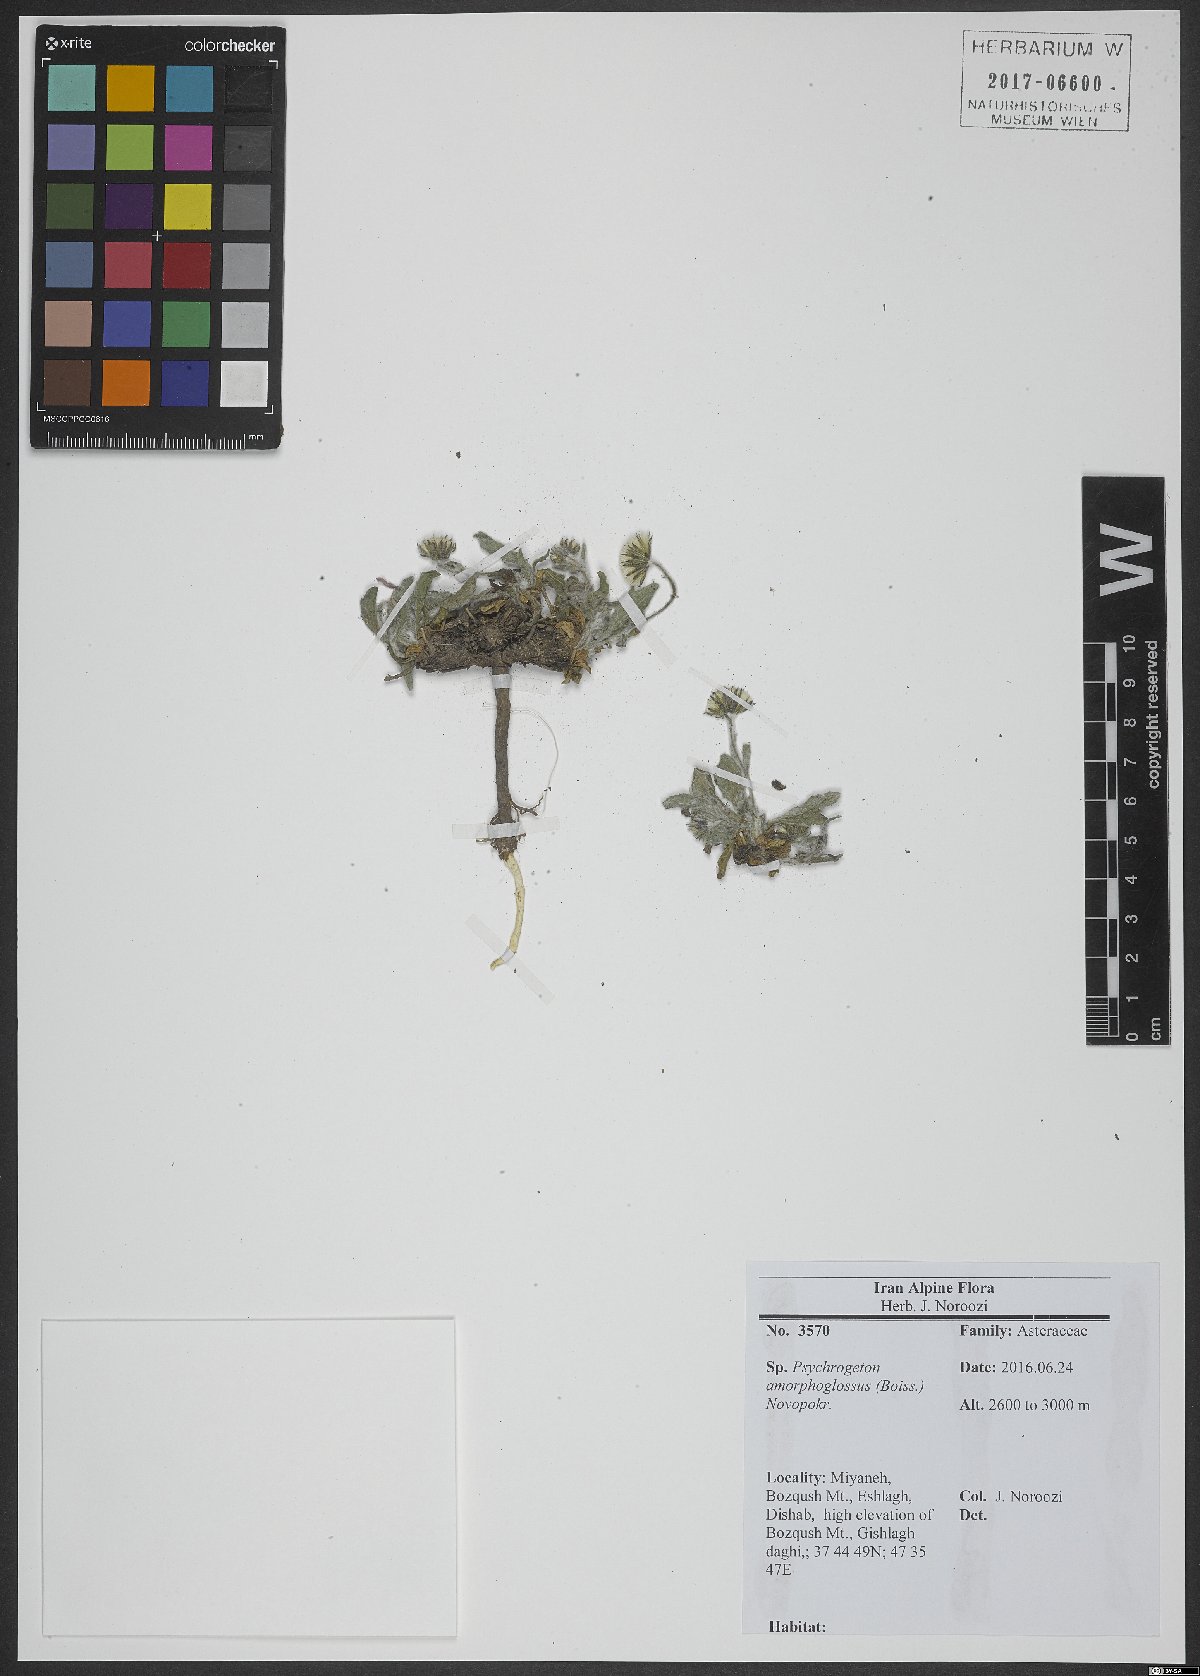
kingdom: Plantae
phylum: Tracheophyta
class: Magnoliopsida
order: Asterales
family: Asteraceae
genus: Psychrogeton
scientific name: Psychrogeton amorphoglossus
